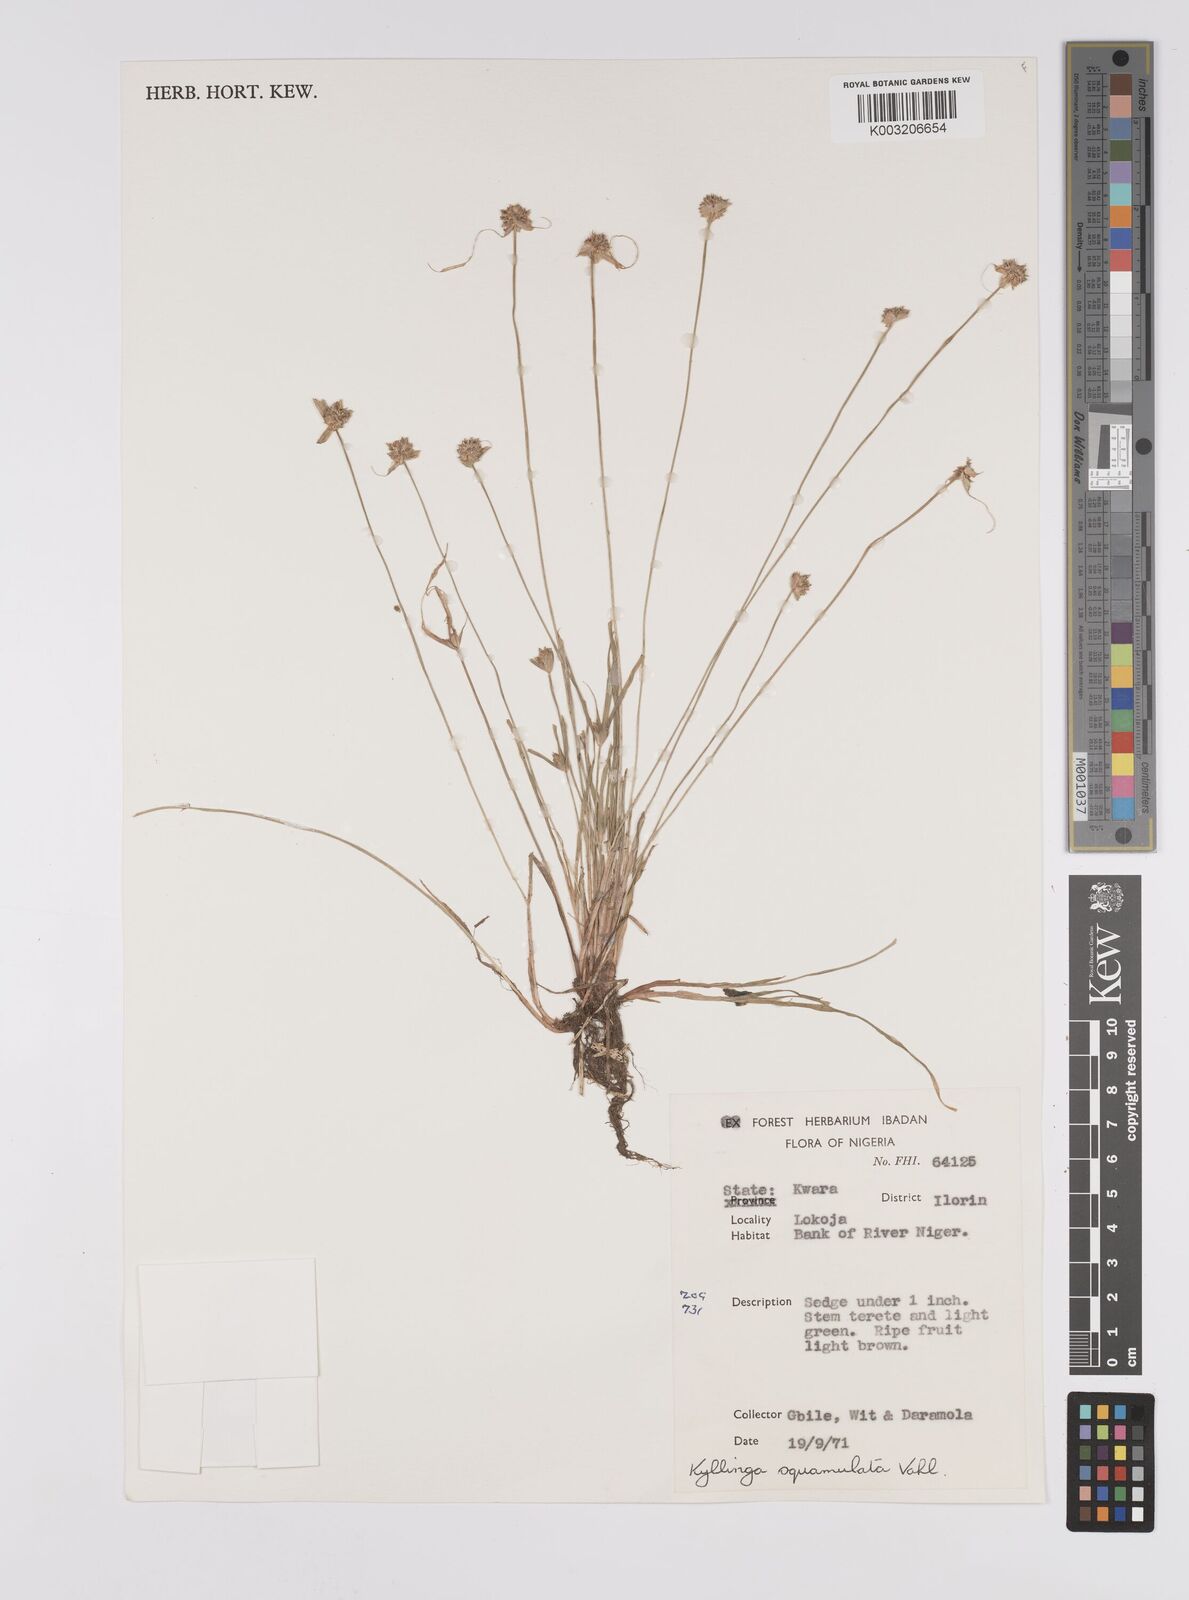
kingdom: Plantae
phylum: Tracheophyta
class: Liliopsida
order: Poales
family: Cyperaceae
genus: Cyperus
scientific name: Cyperus distans
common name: Slender cyperus
